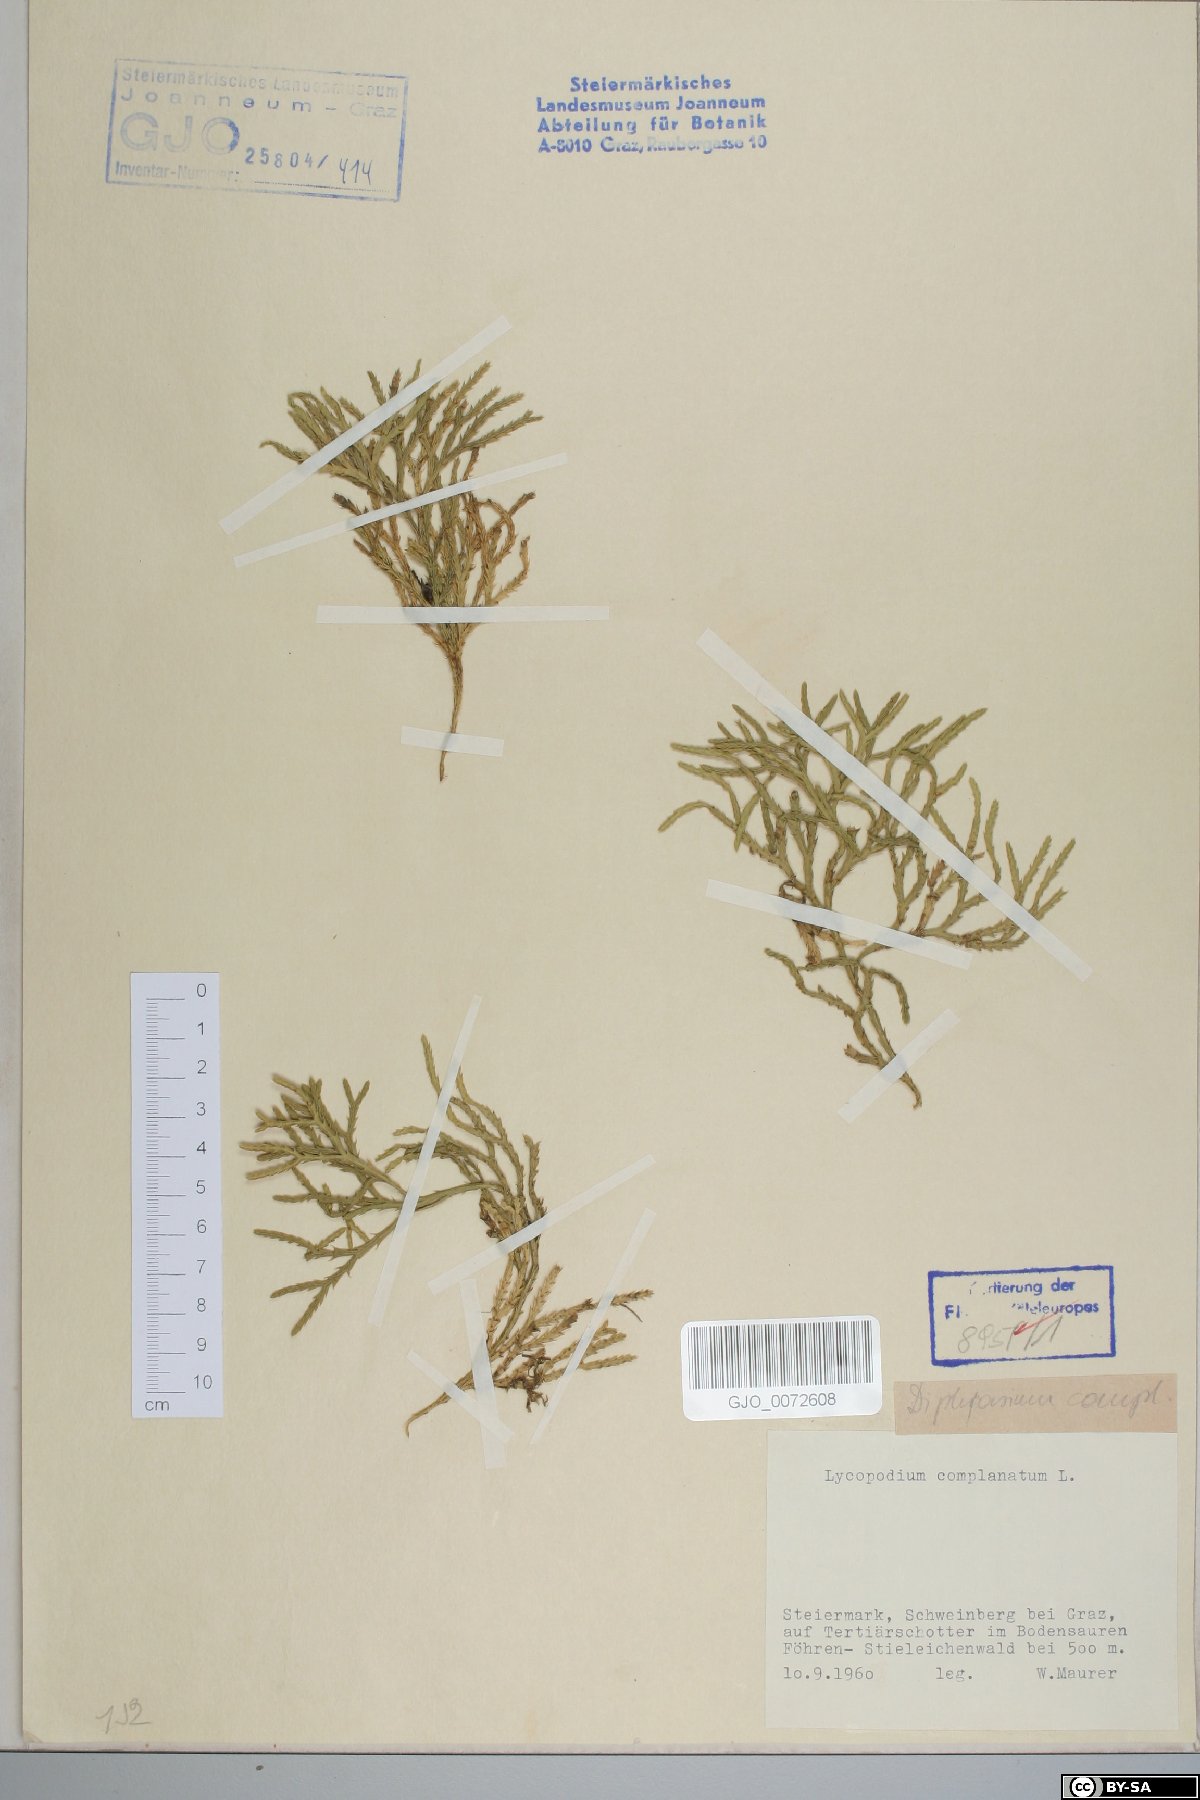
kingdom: Plantae
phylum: Tracheophyta
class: Lycopodiopsida
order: Lycopodiales
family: Lycopodiaceae
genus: Diphasiastrum
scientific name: Diphasiastrum complanatum
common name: Northern running-pine
